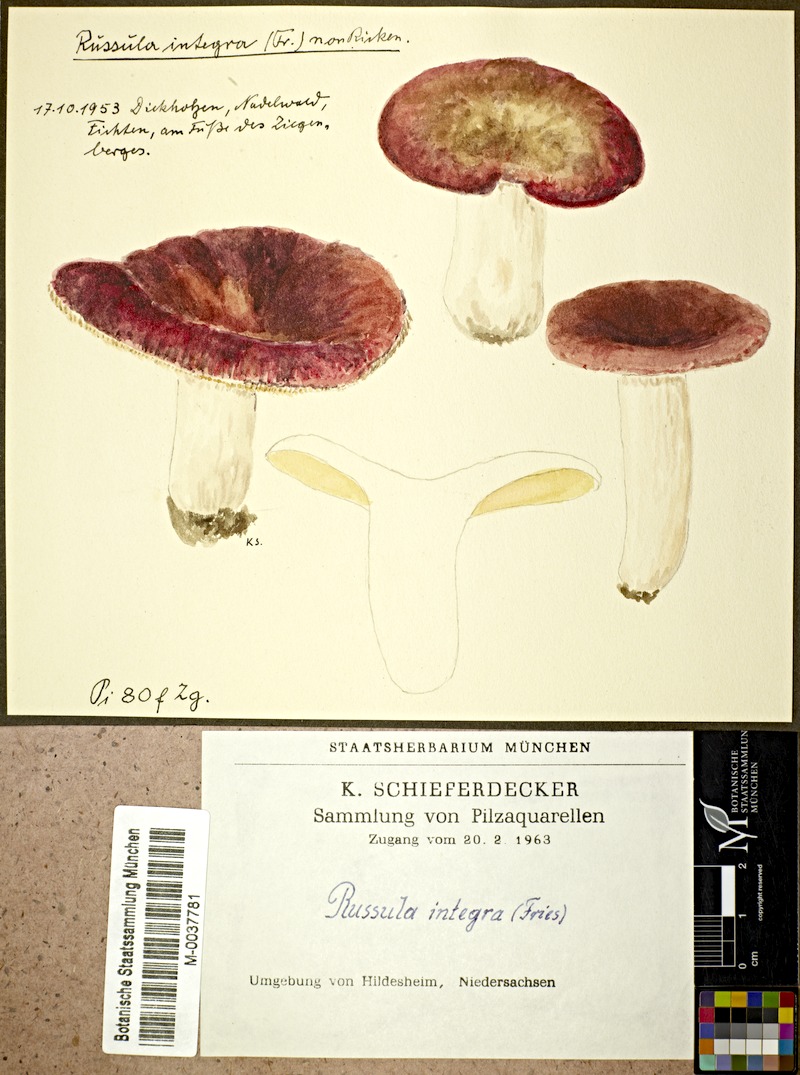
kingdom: Fungi
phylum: Basidiomycota
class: Agaricomycetes
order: Russulales
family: Russulaceae
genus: Russula
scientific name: Russula integra
